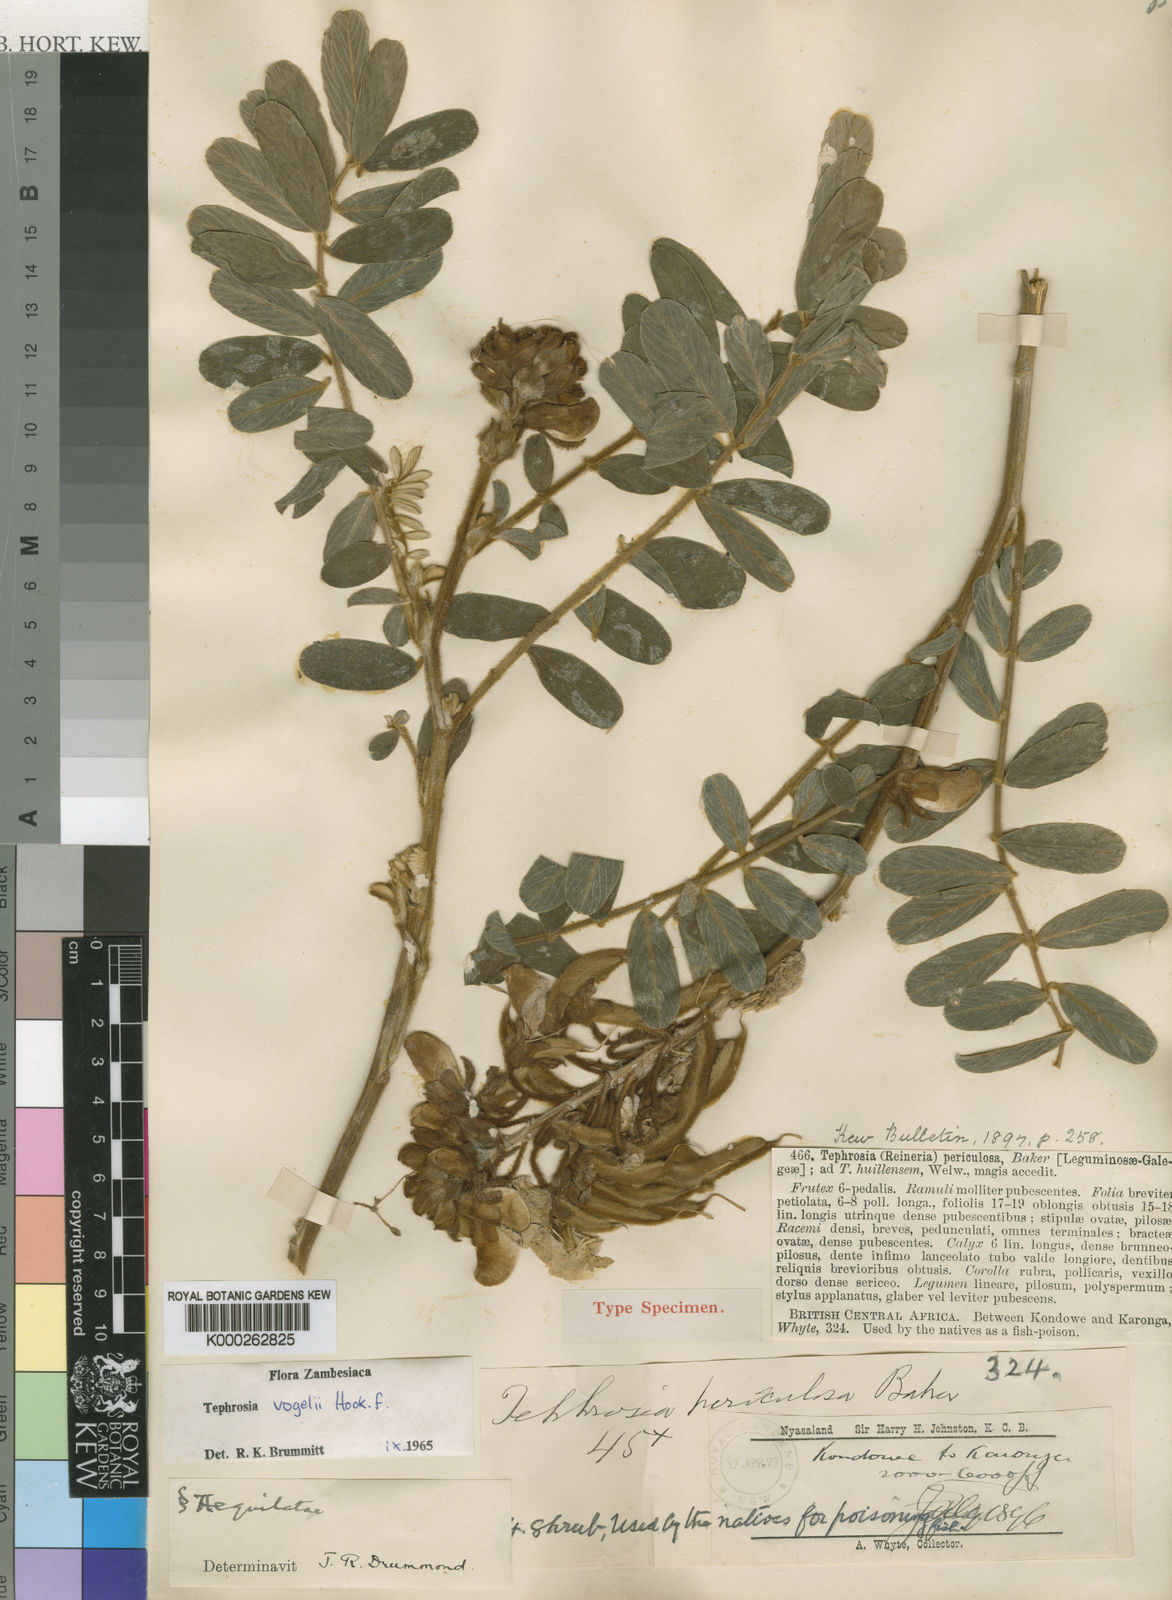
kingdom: Plantae
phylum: Tracheophyta
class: Magnoliopsida
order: Fabales
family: Fabaceae
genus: Tephrosia
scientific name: Tephrosia vogelii
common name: Vogel tephrosia
